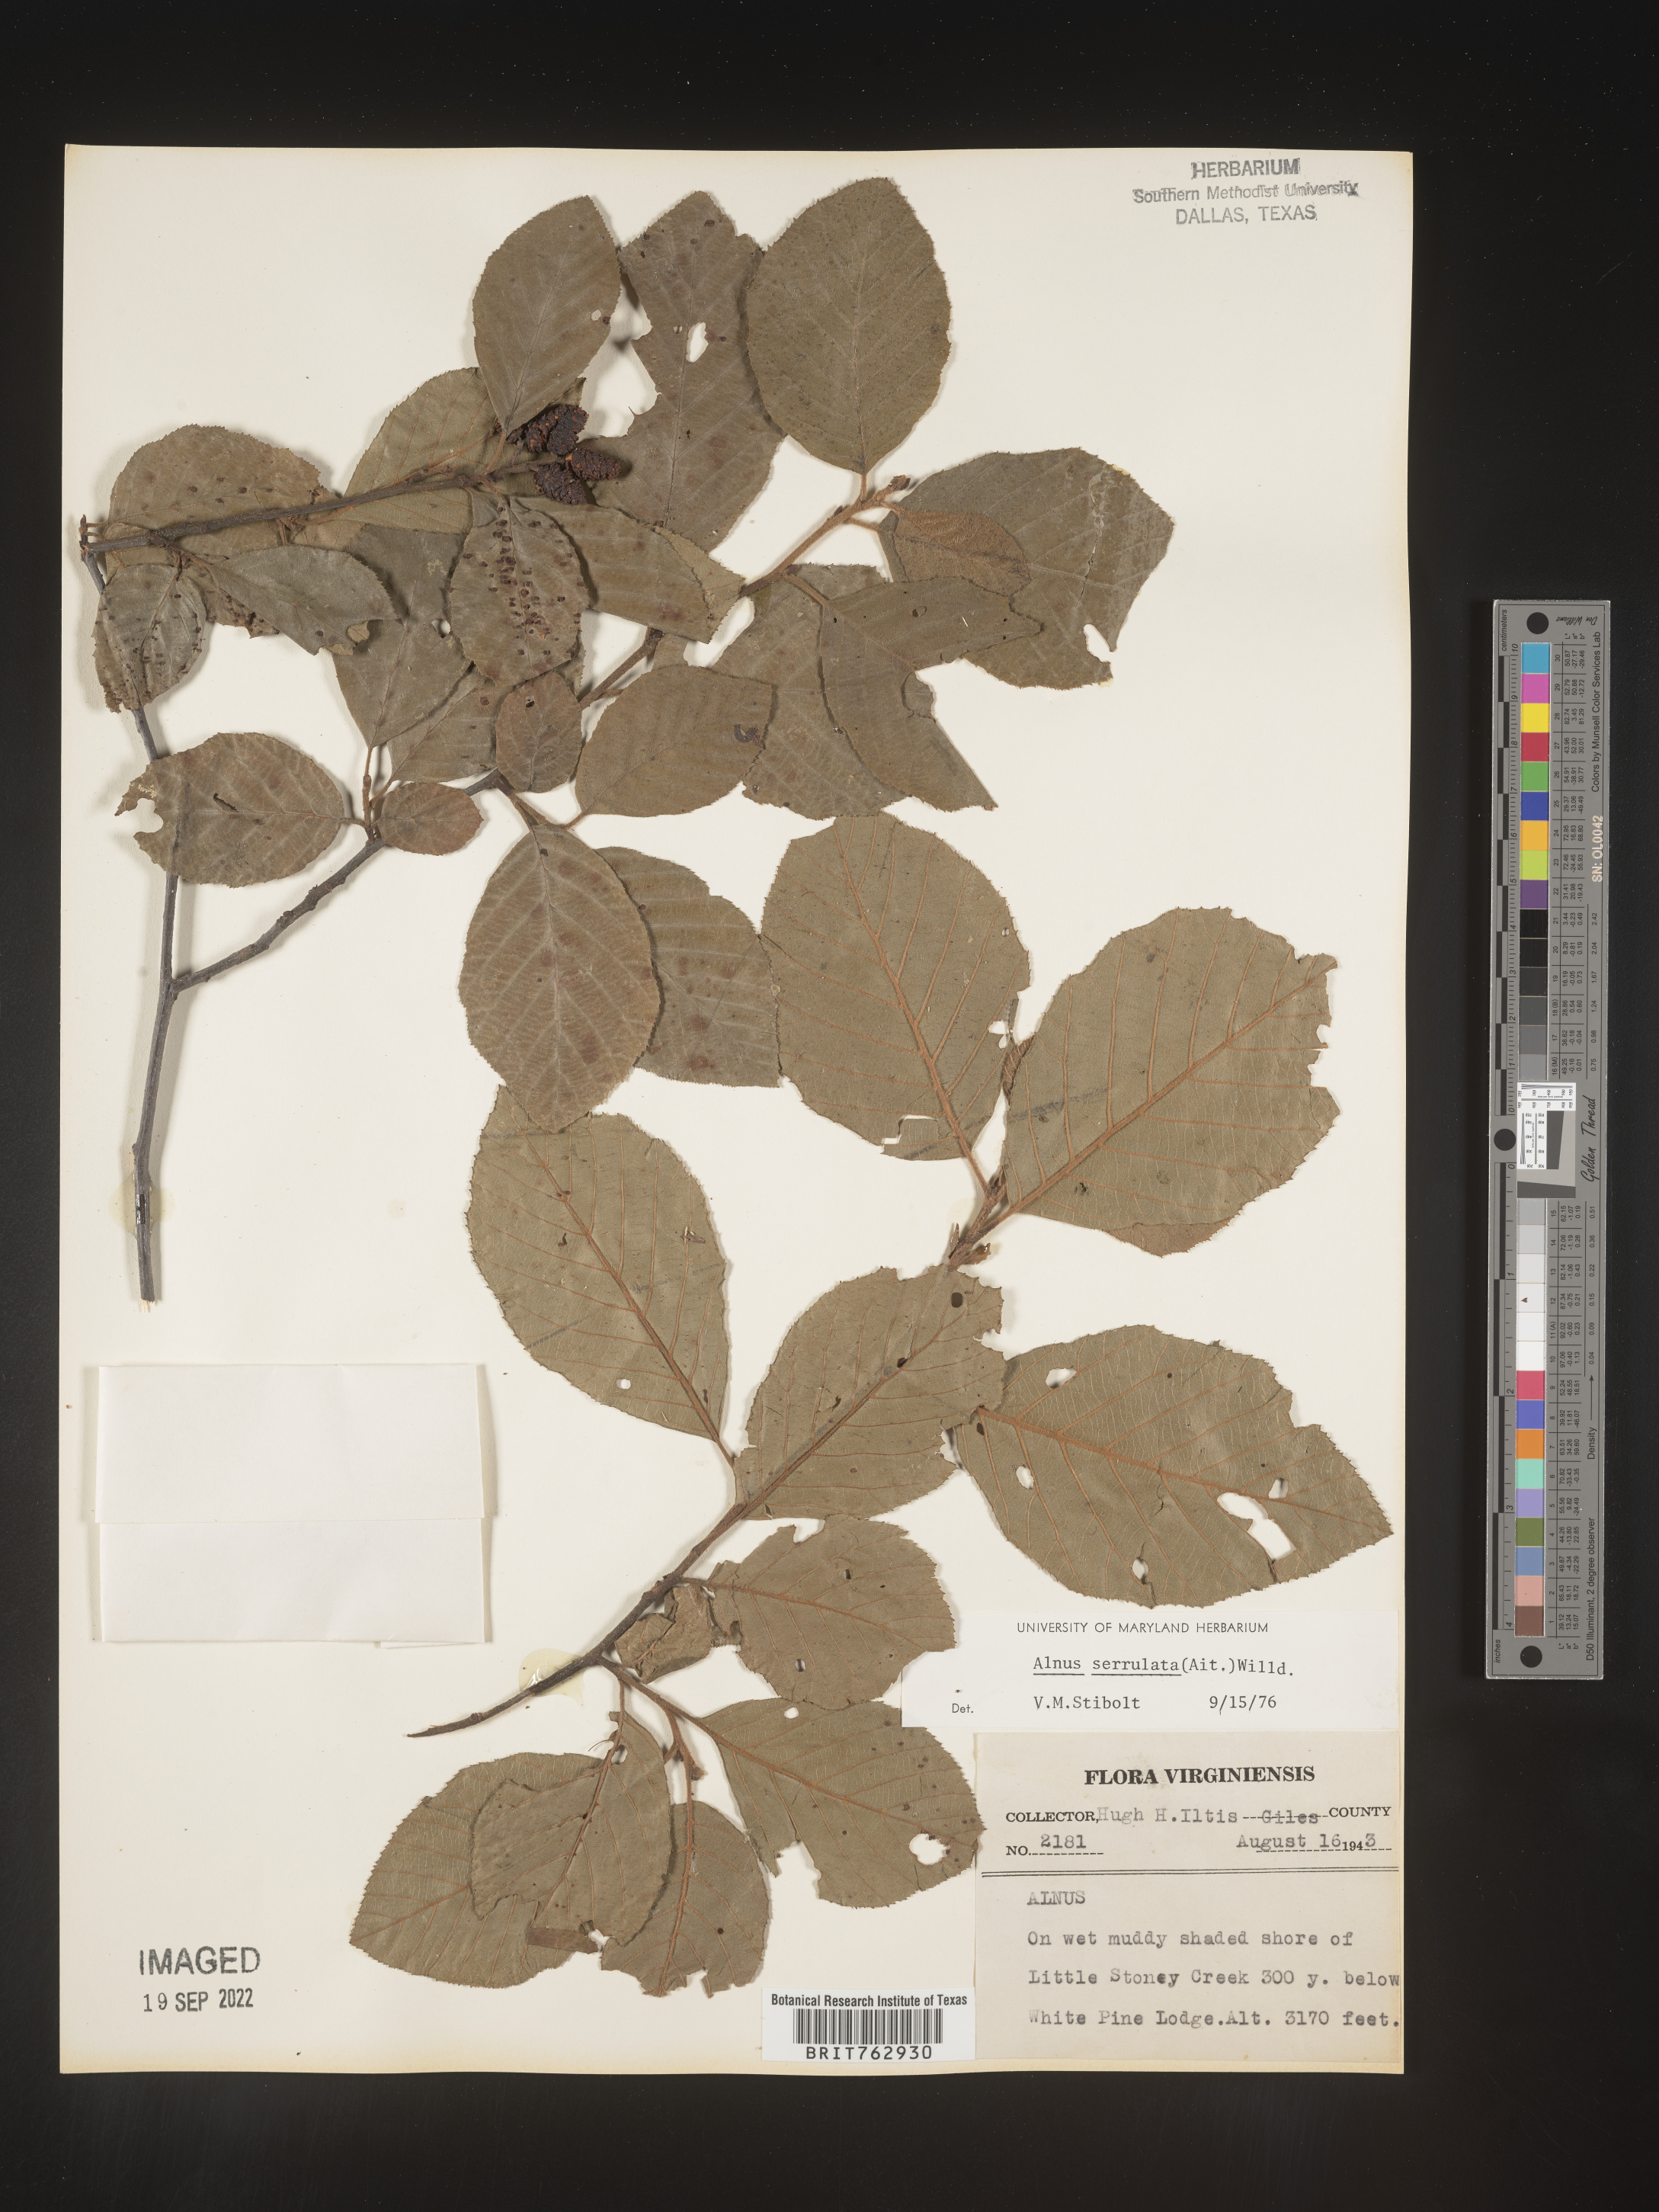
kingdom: Plantae
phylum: Tracheophyta
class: Magnoliopsida
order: Fagales
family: Betulaceae
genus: Alnus
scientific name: Alnus serrulata
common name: Hazel alder
